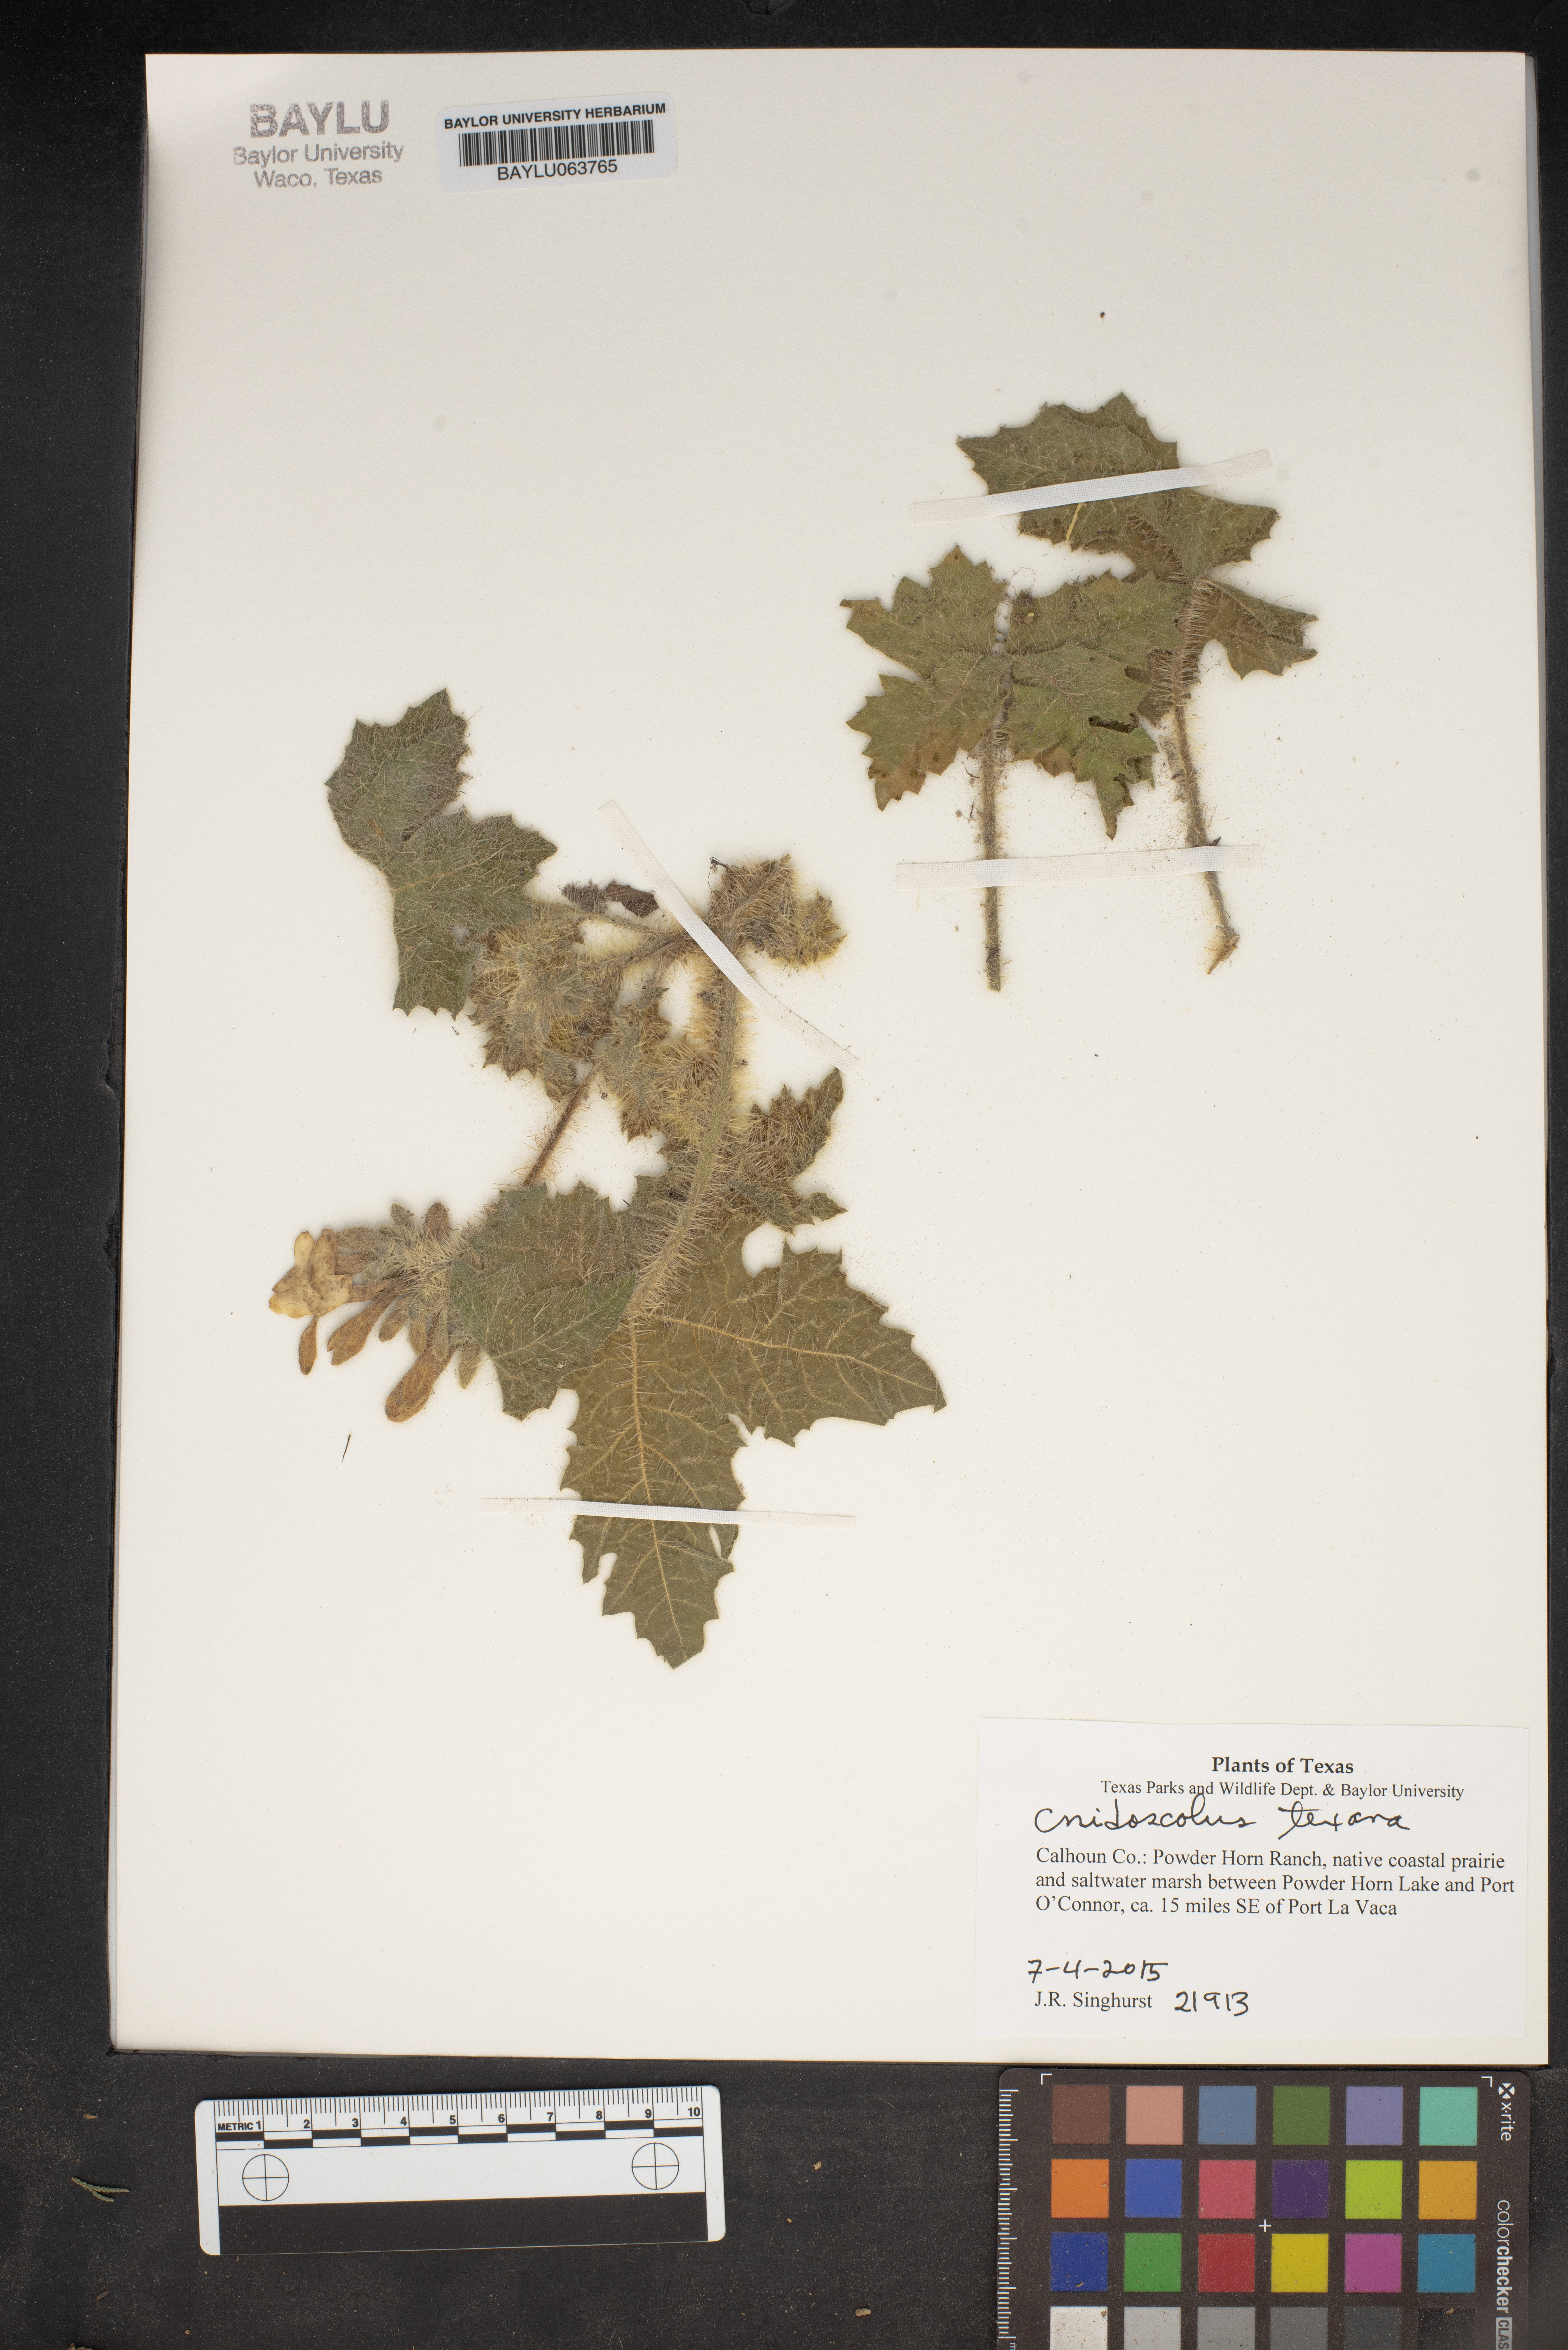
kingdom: Plantae
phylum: Tracheophyta
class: Magnoliopsida
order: Malpighiales
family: Euphorbiaceae
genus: Cnidoscolus
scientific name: Cnidoscolus texanus
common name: Texas bull-nettle
